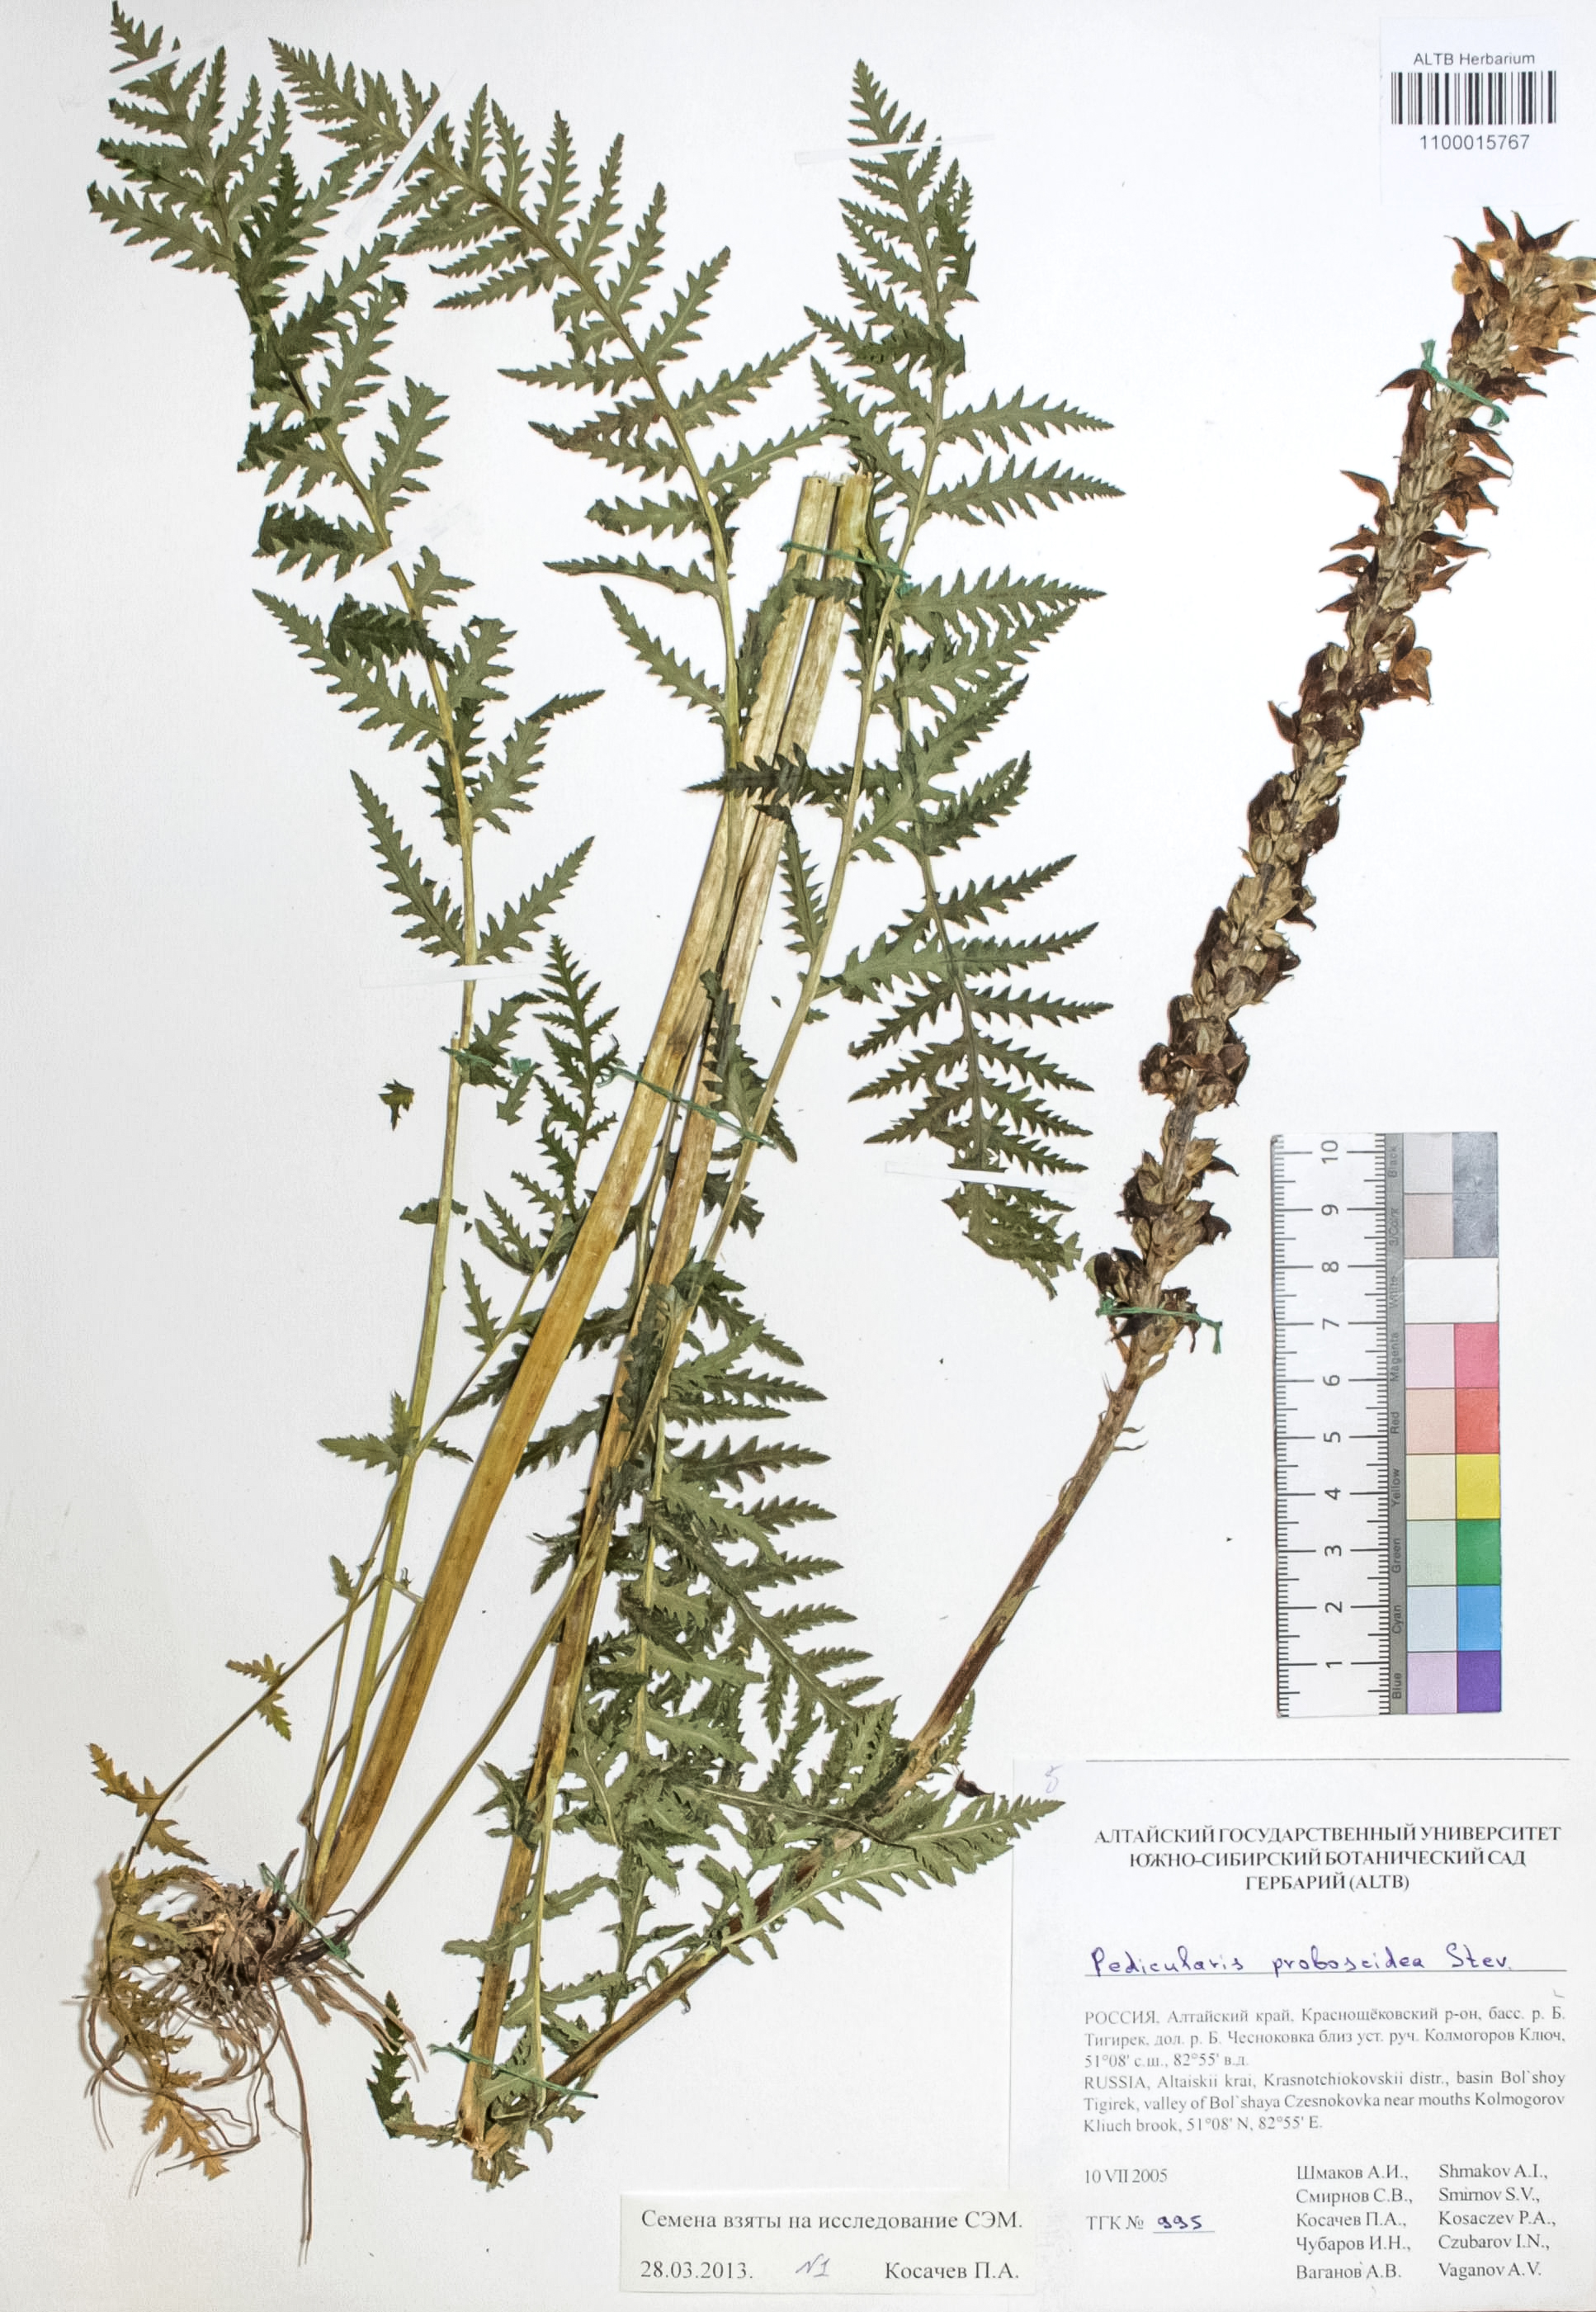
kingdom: Plantae
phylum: Tracheophyta
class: Magnoliopsida
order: Lamiales
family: Orobanchaceae
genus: Pedicularis
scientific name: Pedicularis proboscidea
